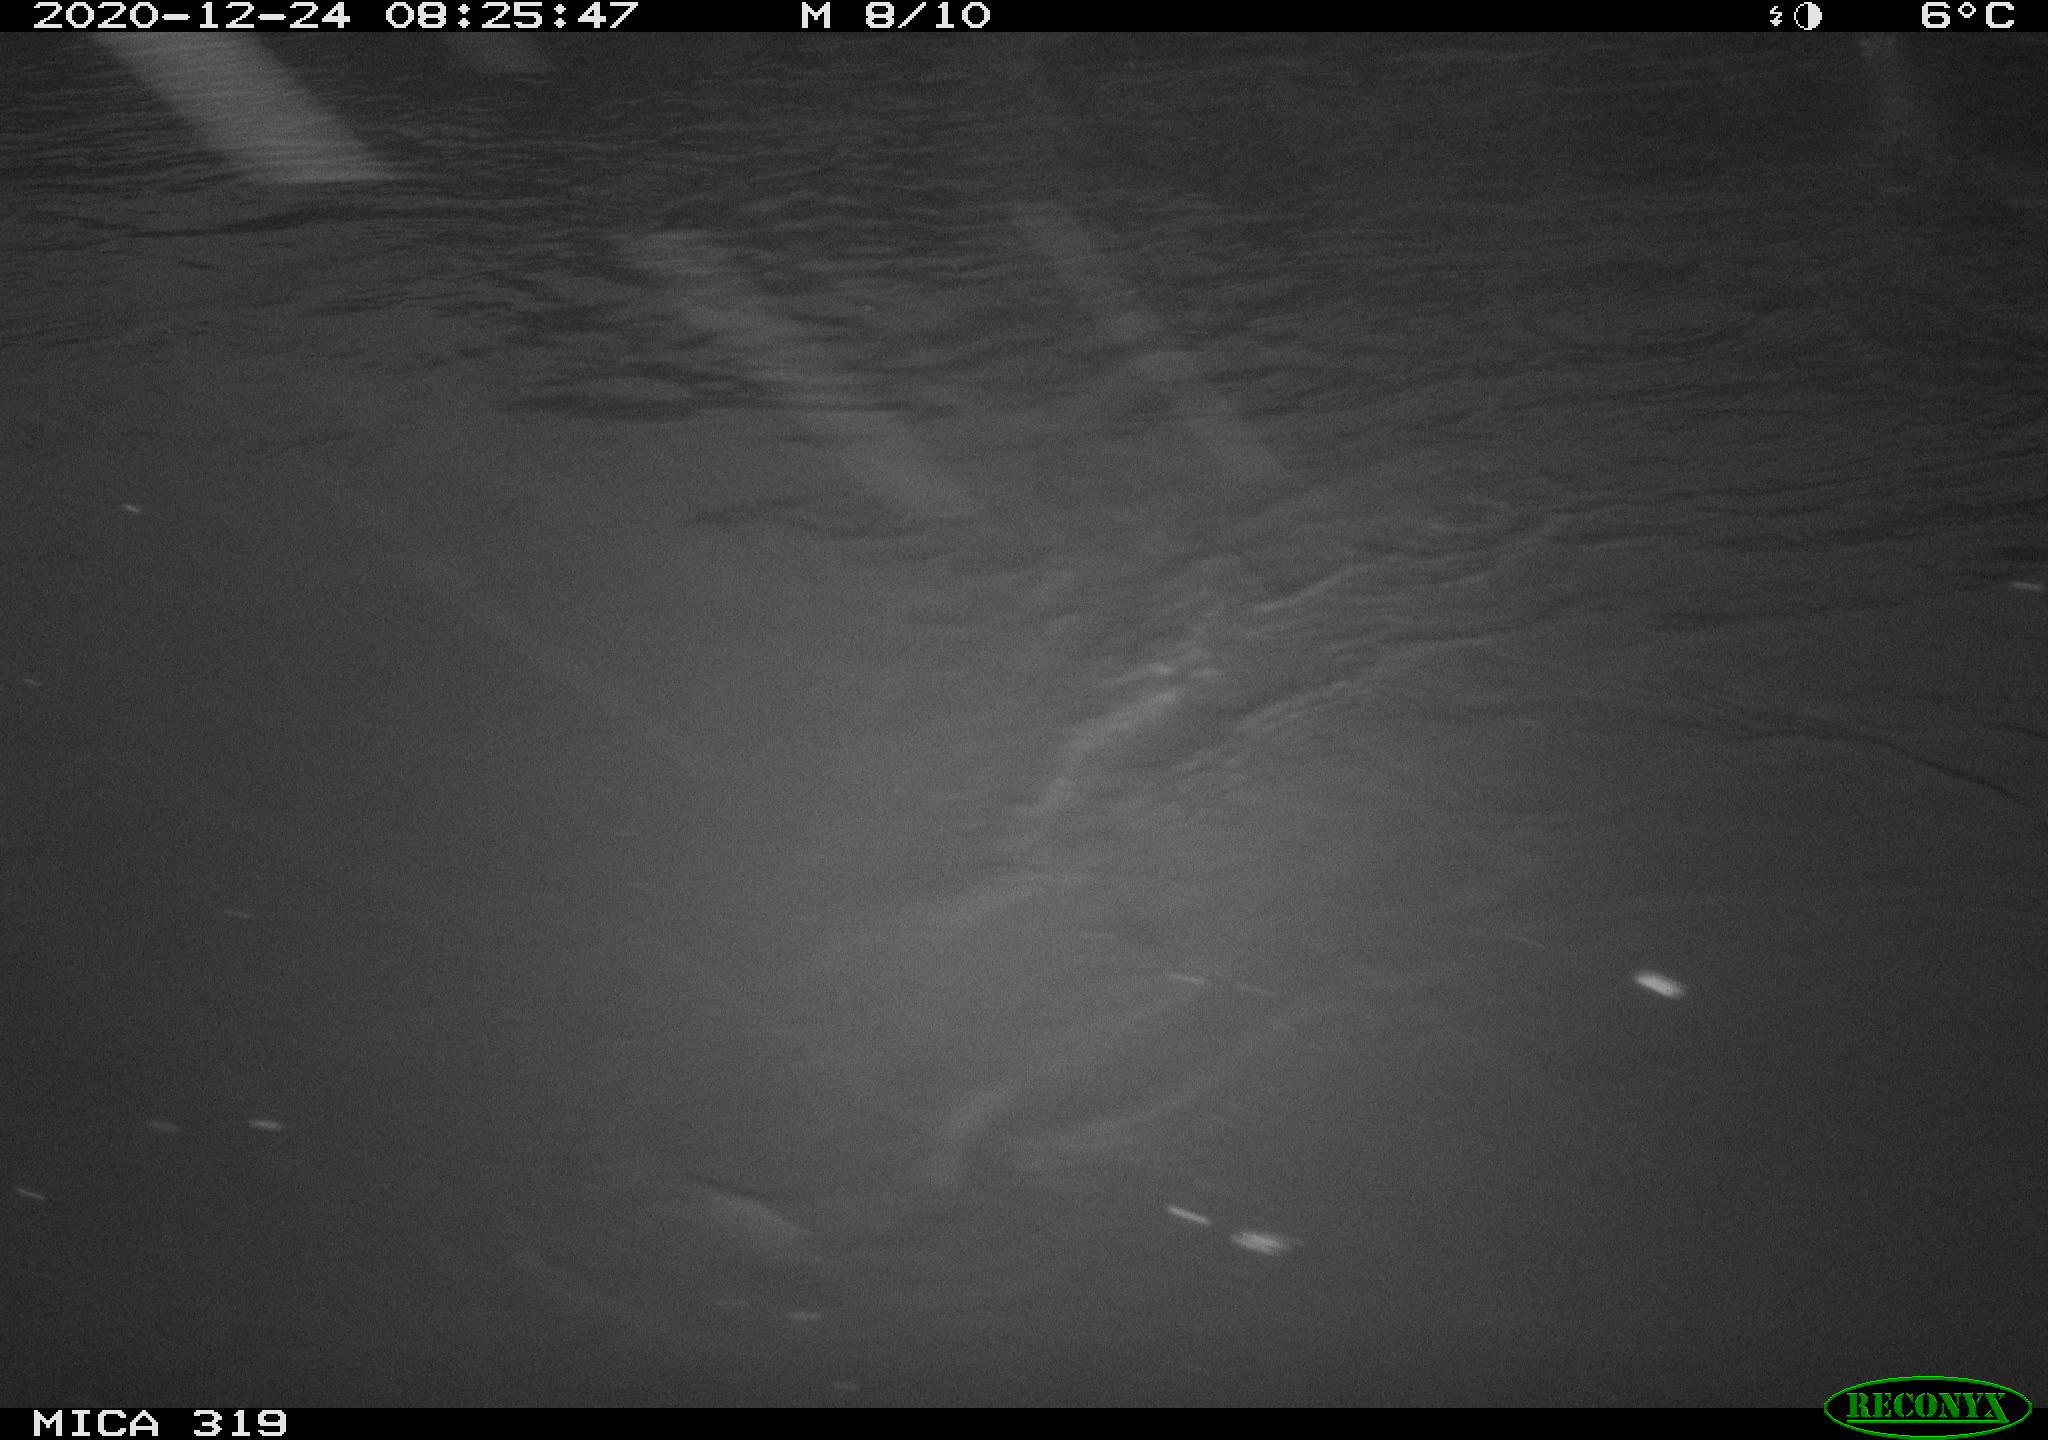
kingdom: Animalia
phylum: Chordata
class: Aves
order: Anseriformes
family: Anatidae
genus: Anas
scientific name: Anas platyrhynchos
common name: Mallard
